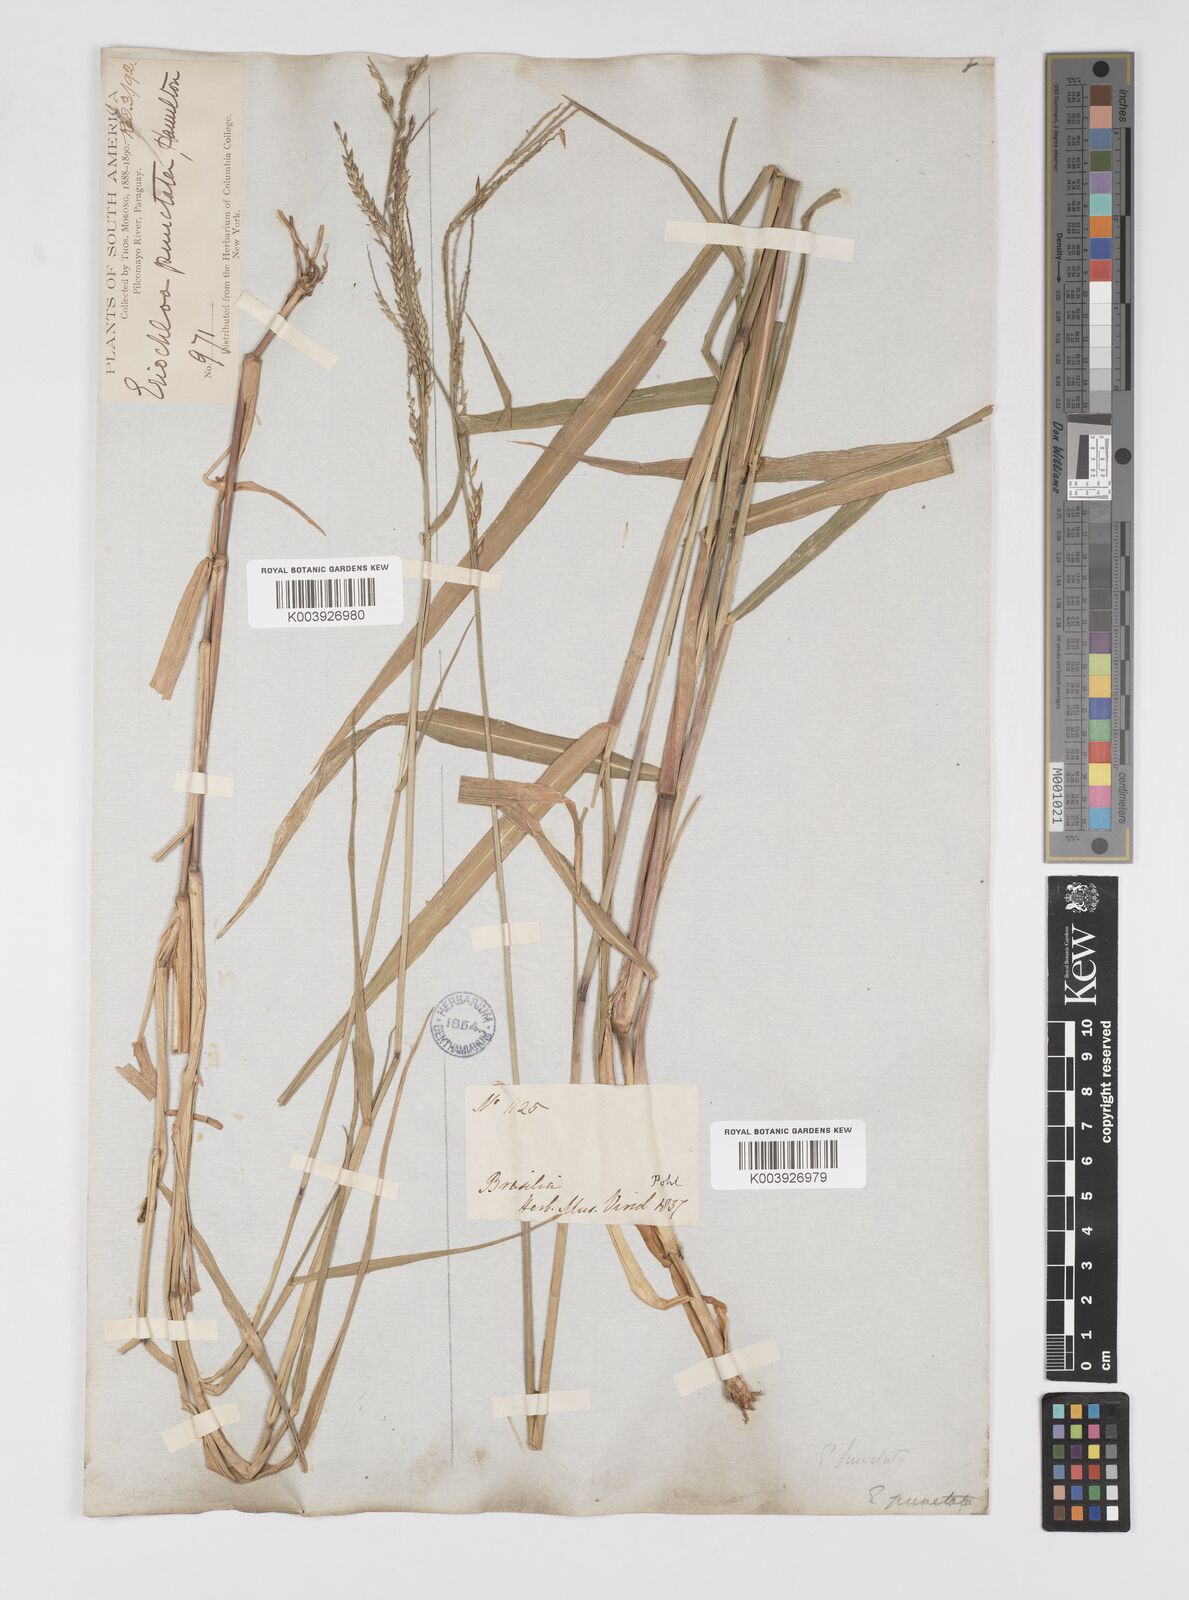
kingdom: Plantae
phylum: Tracheophyta
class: Liliopsida
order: Poales
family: Poaceae
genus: Eriochloa
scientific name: Eriochloa punctata
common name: Louisiana cupgrass
